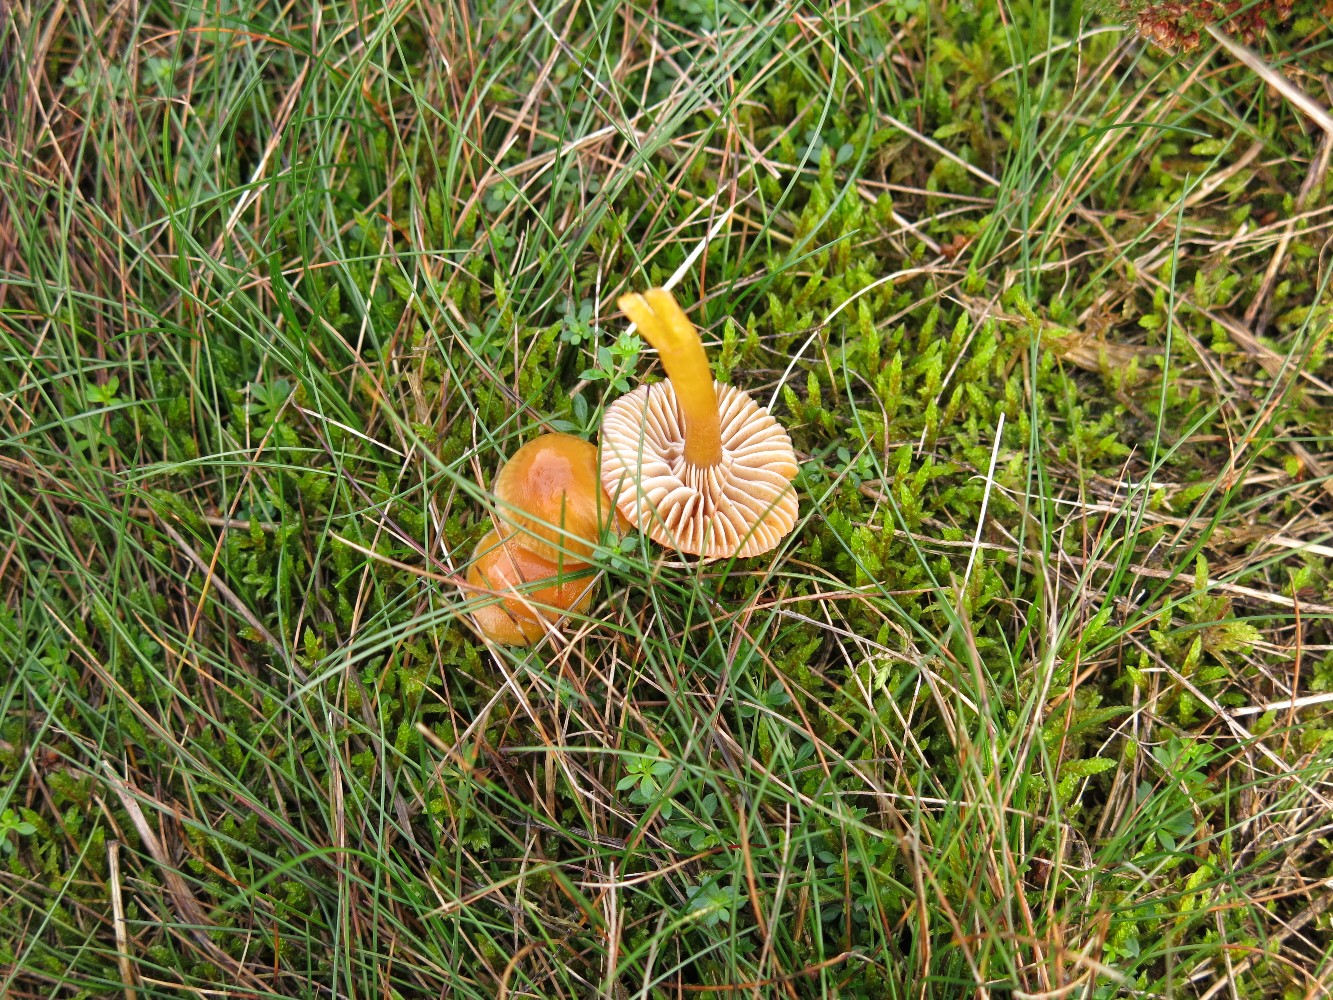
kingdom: Fungi
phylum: Basidiomycota
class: Agaricomycetes
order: Agaricales
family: Hygrophoraceae
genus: Gliophorus
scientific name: Gliophorus laetus
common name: brusk-vokshat
